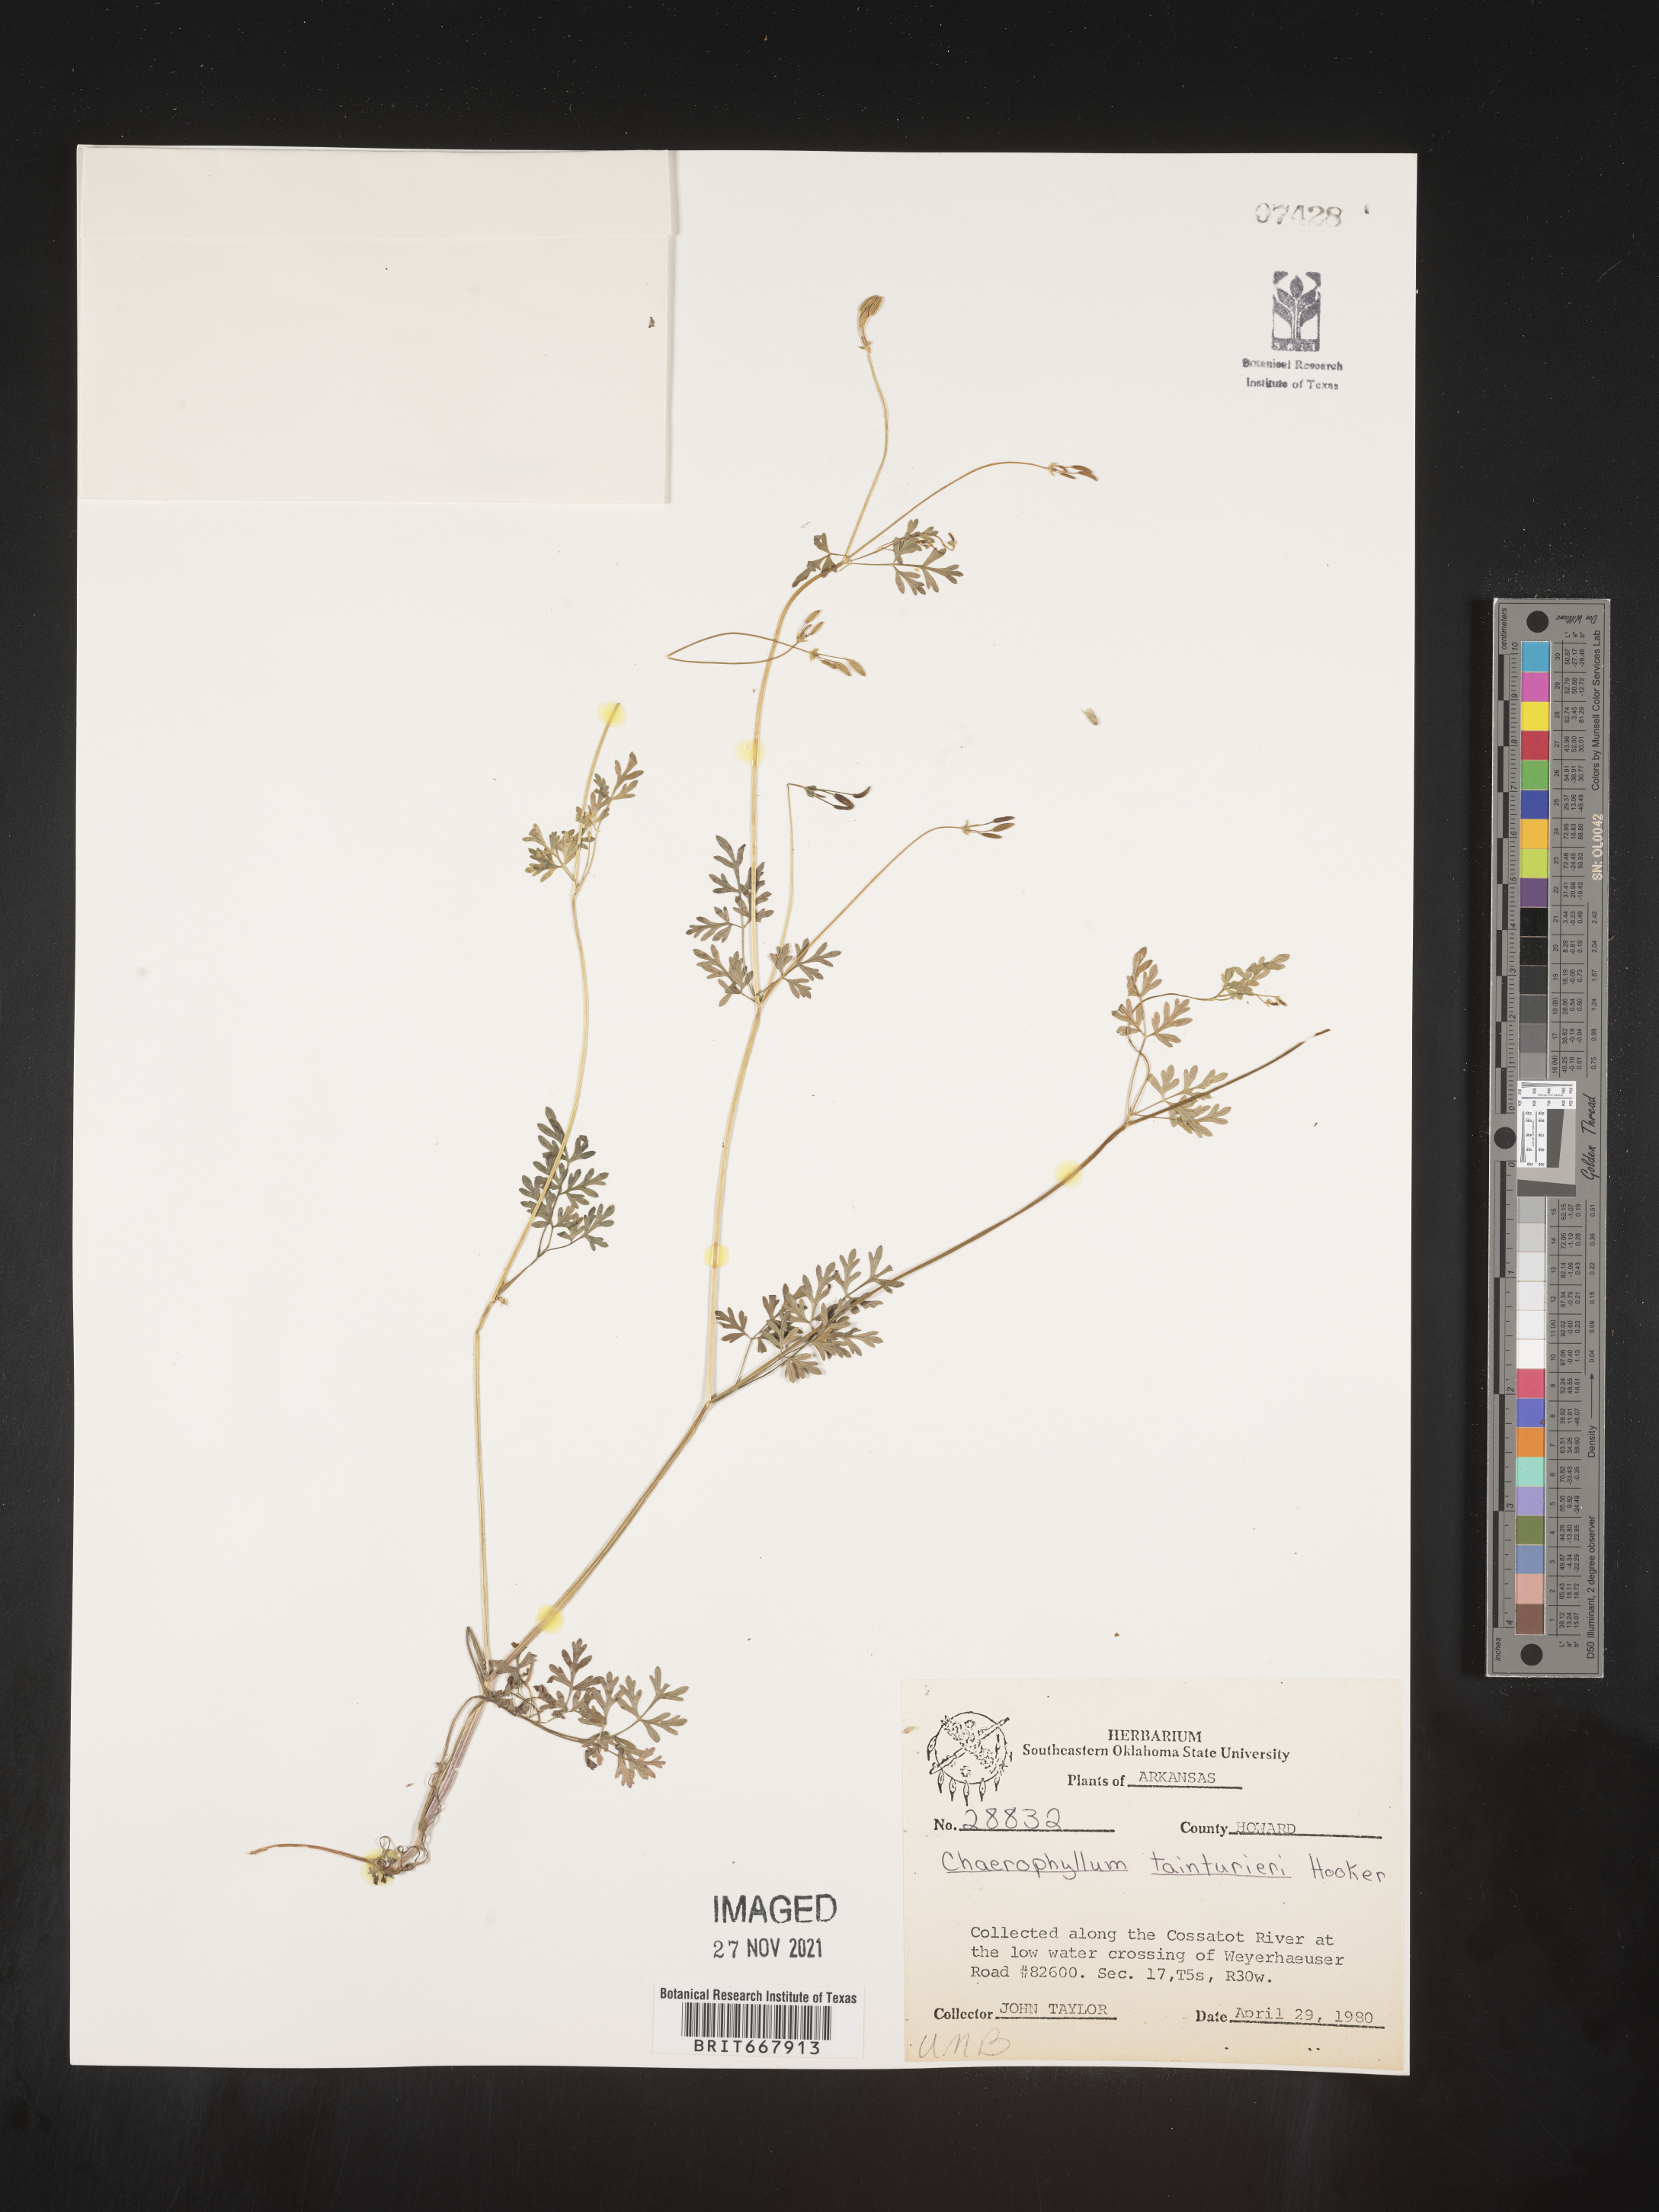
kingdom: Plantae
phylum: Tracheophyta
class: Magnoliopsida
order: Apiales
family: Apiaceae
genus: Chaerophyllum
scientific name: Chaerophyllum tainturieri
